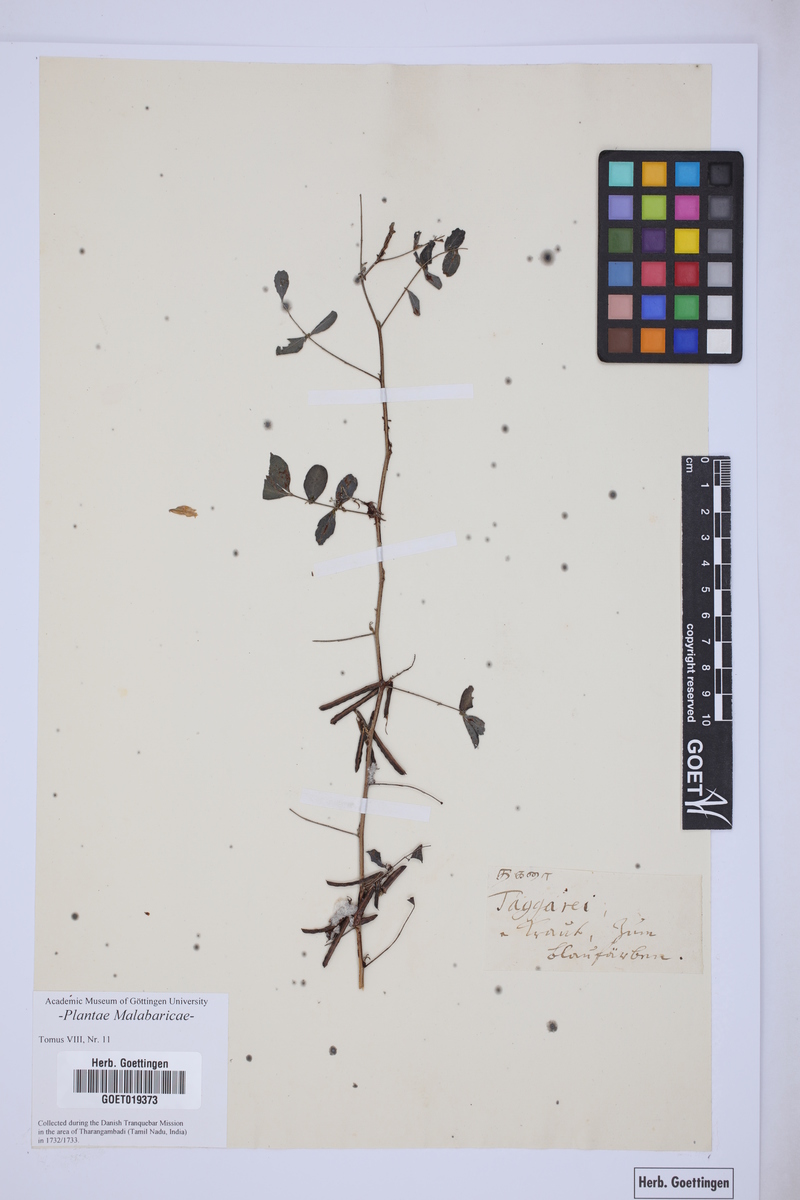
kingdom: Plantae
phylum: Tracheophyta
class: Magnoliopsida
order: Fabales
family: Fabaceae
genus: Cassia
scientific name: Cassia
